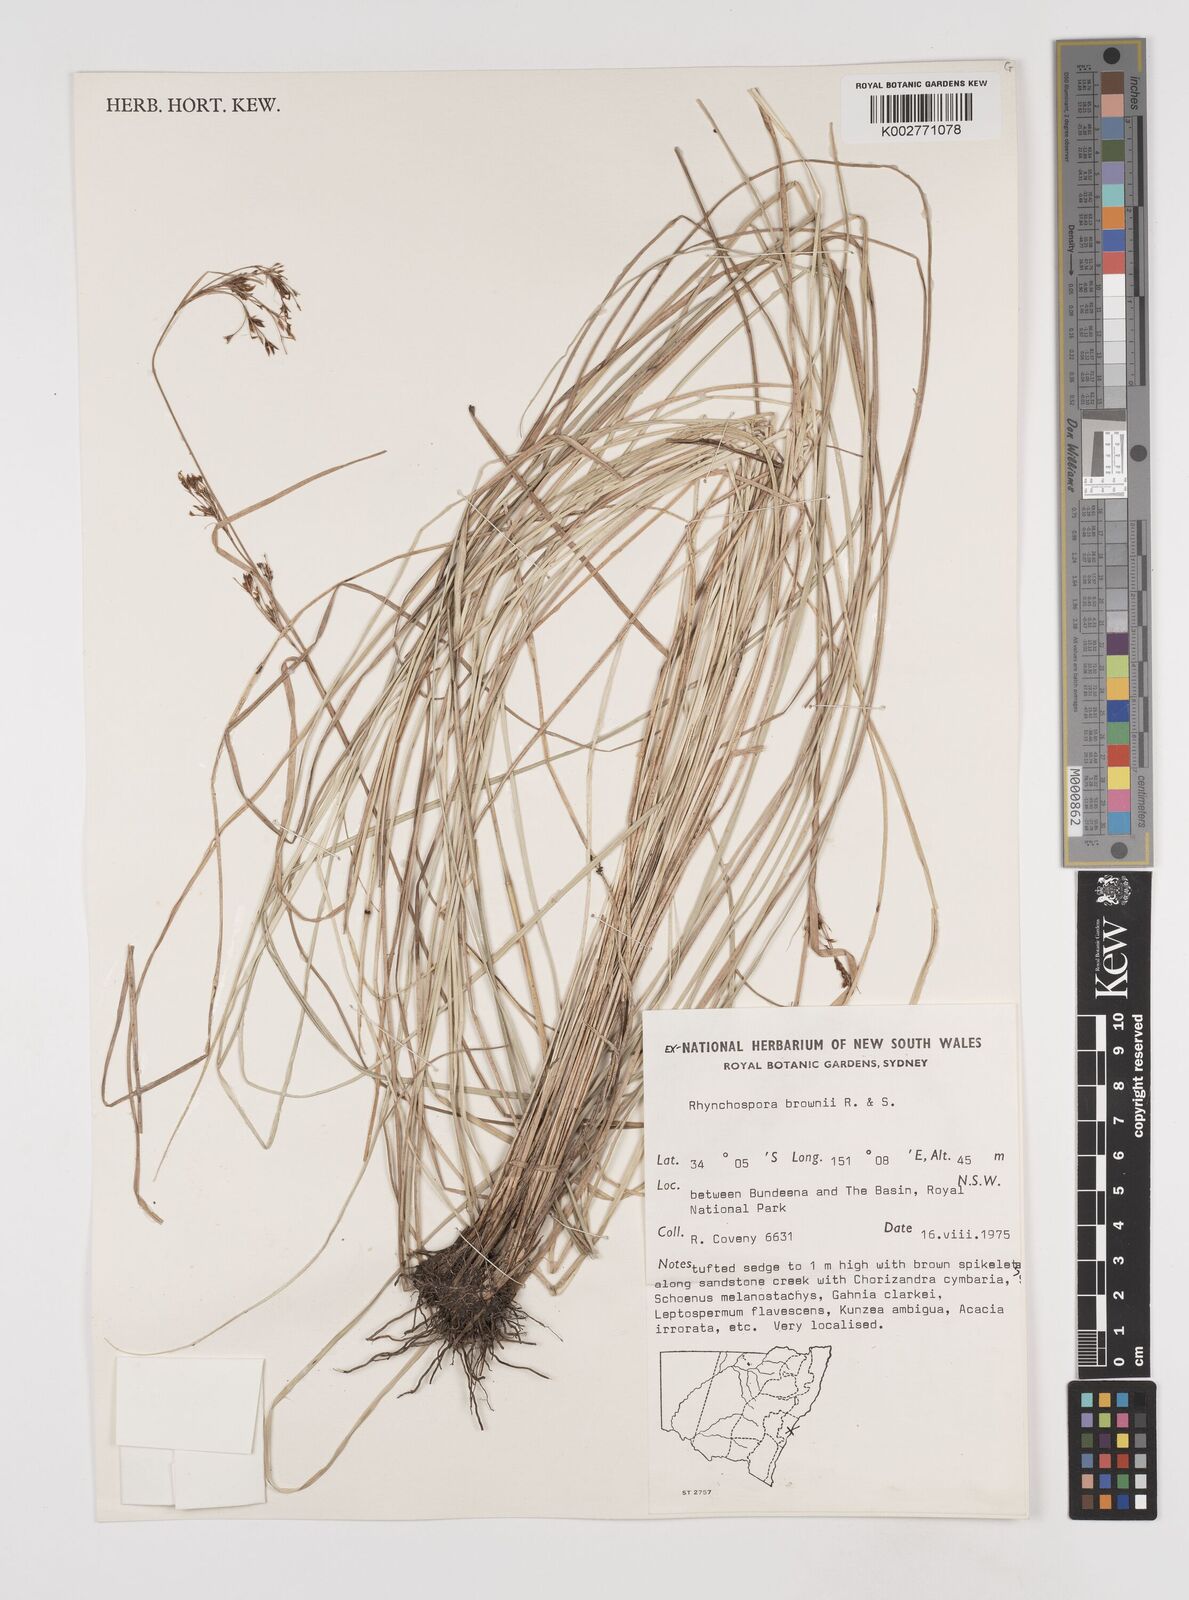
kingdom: Plantae
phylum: Tracheophyta
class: Liliopsida
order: Poales
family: Cyperaceae
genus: Rhynchospora
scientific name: Rhynchospora rugosa
